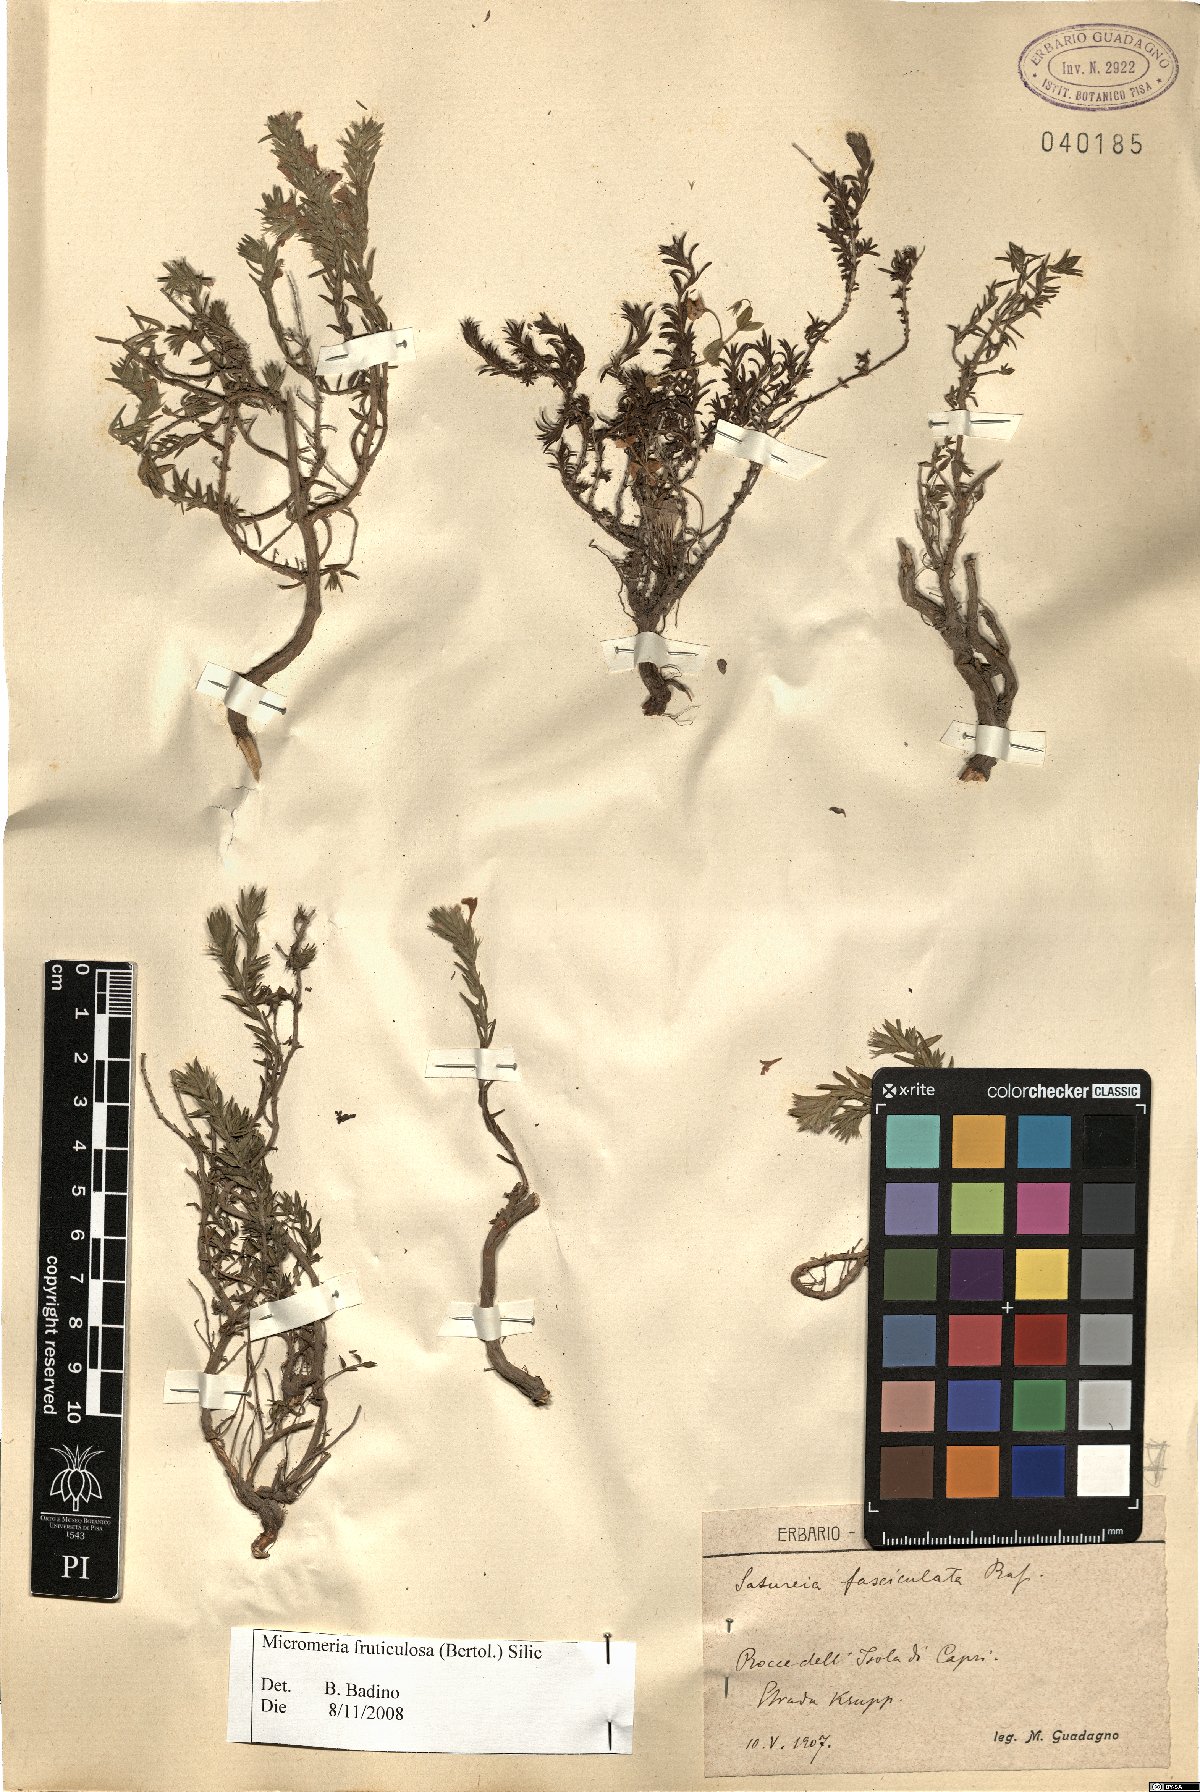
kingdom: Plantae
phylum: Tracheophyta
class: Magnoliopsida
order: Lamiales
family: Lamiaceae
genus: Micromeria
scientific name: Micromeria graeca
